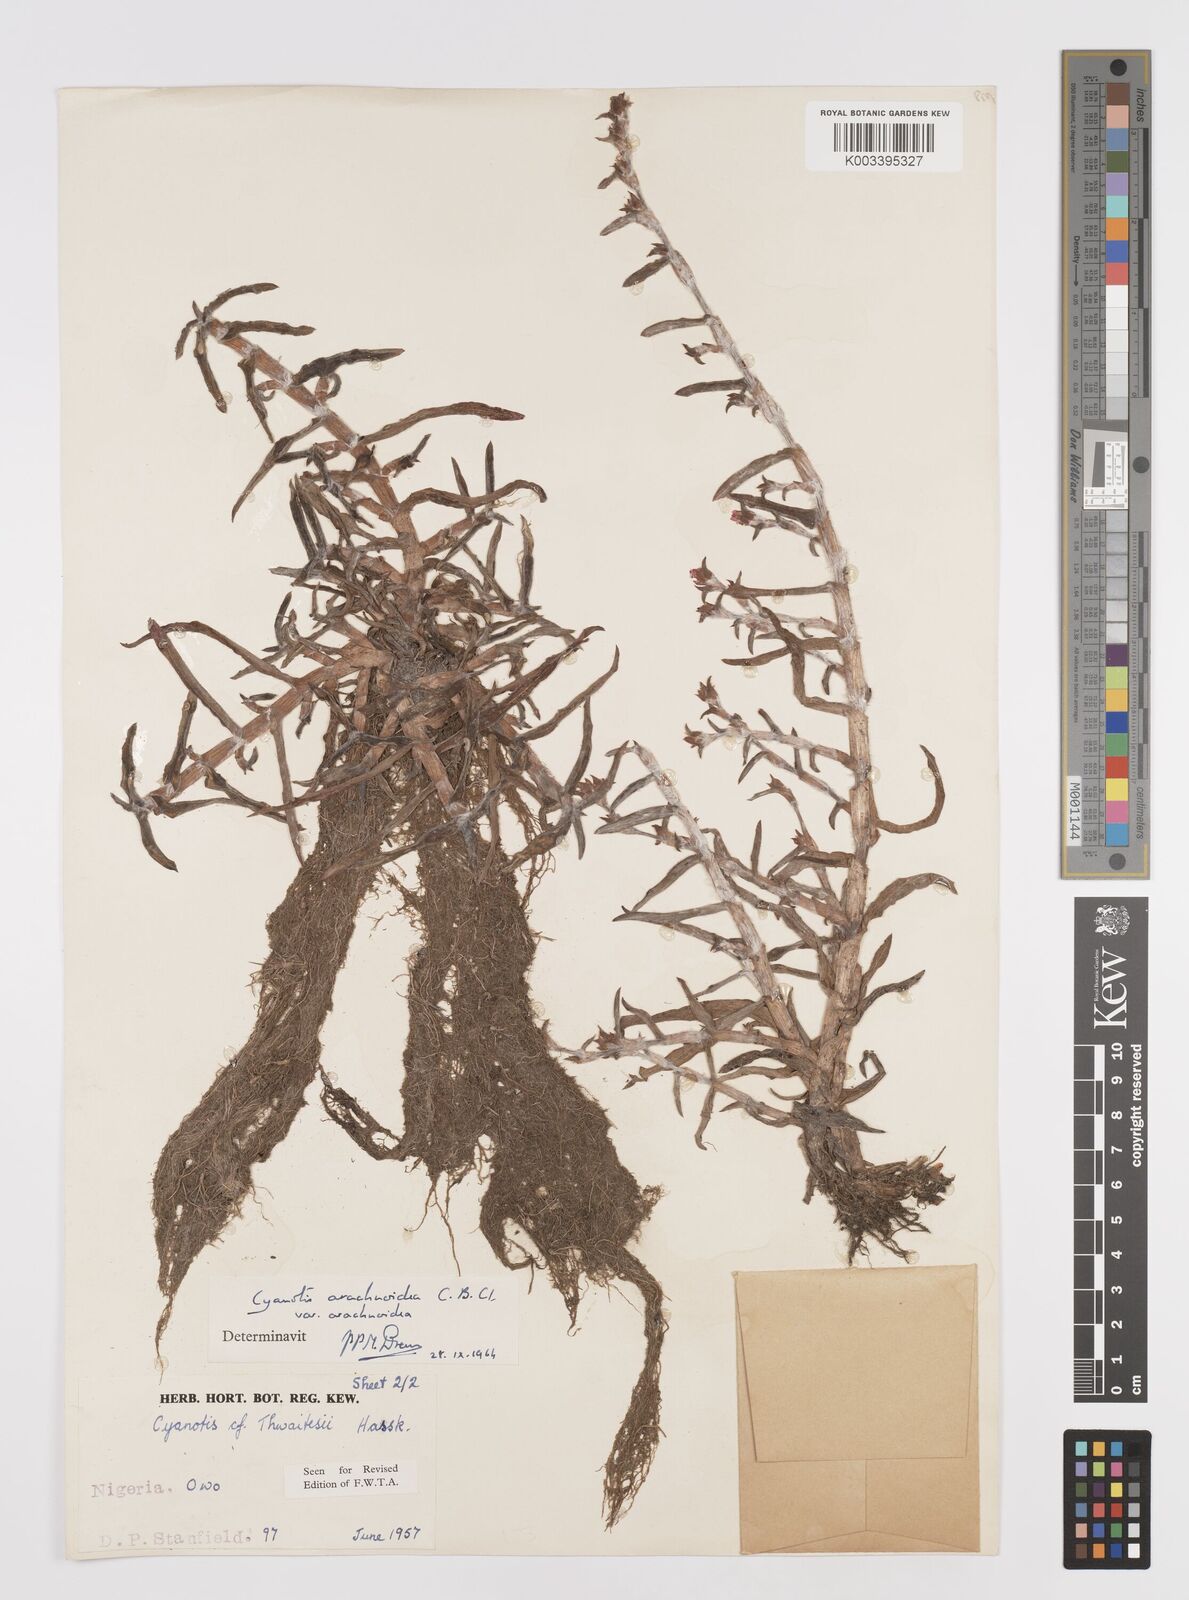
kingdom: Plantae
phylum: Tracheophyta
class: Liliopsida
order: Commelinales
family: Commelinaceae
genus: Cyanotis
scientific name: Cyanotis arachnoidea
